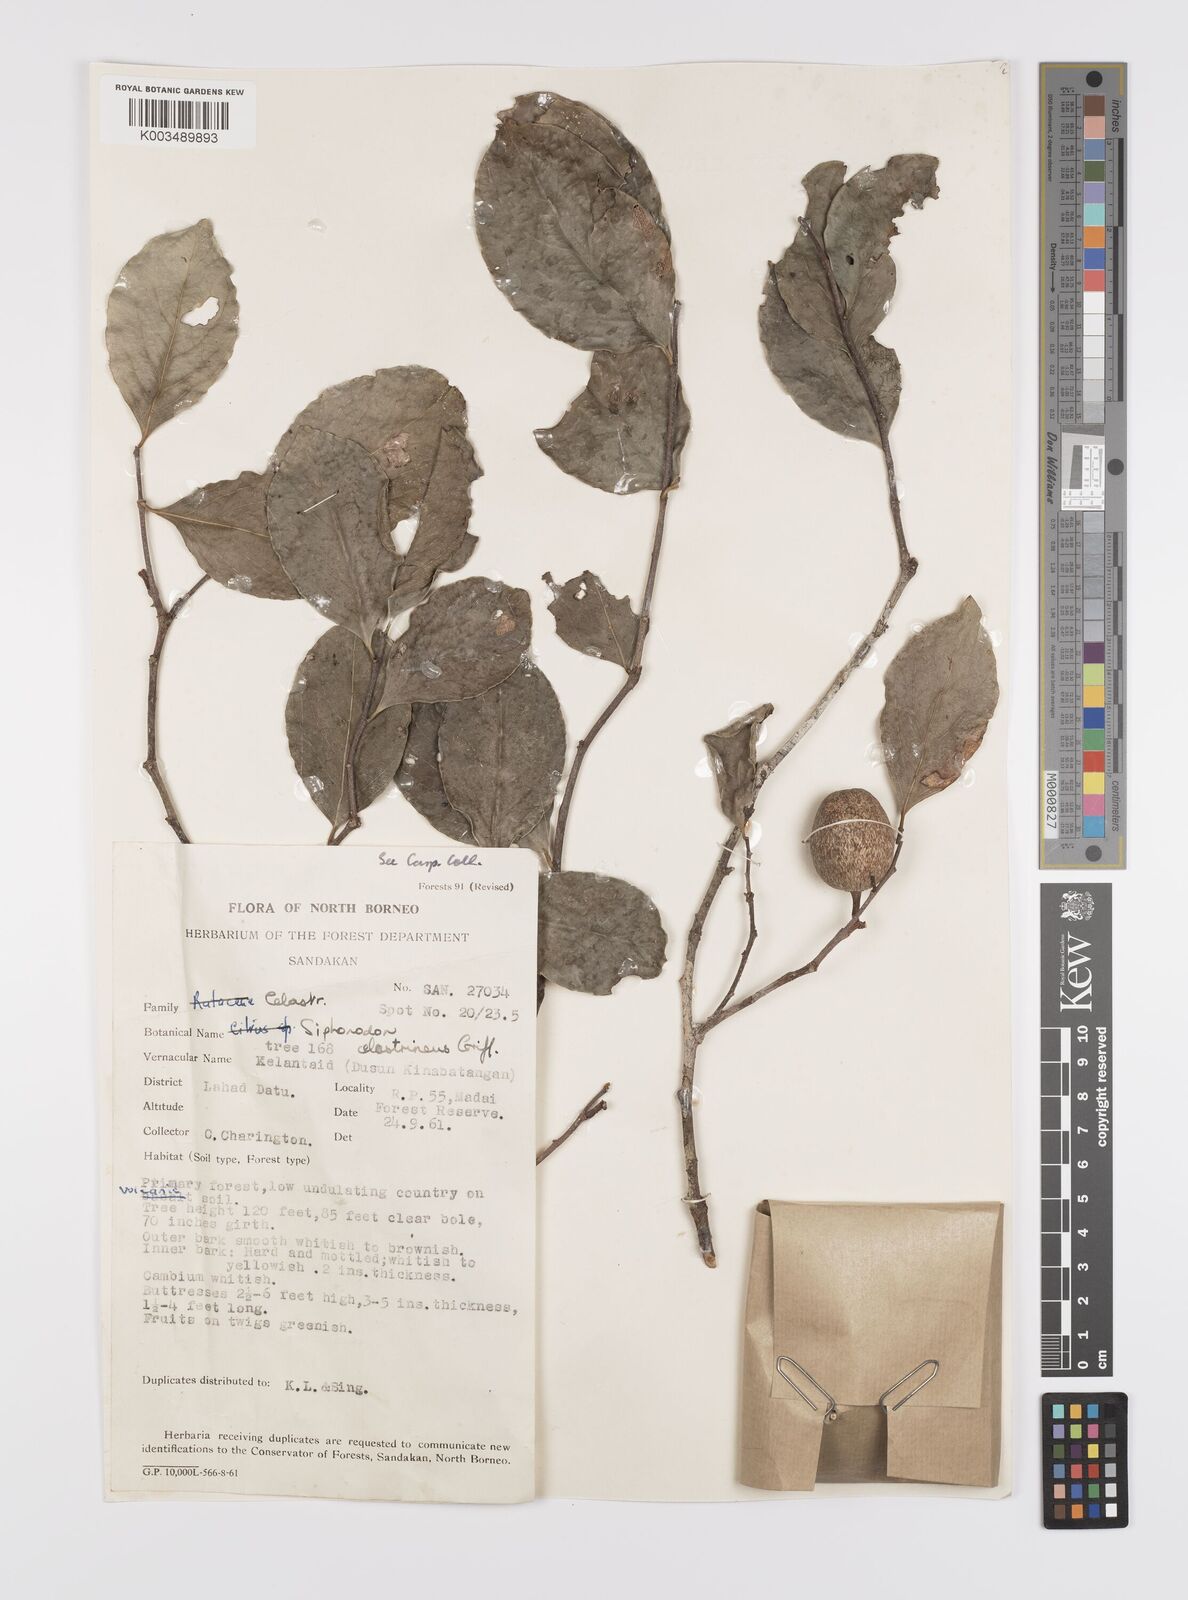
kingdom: Plantae
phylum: Tracheophyta
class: Magnoliopsida
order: Celastrales
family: Celastraceae
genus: Siphonodon
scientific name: Siphonodon celastrineus
